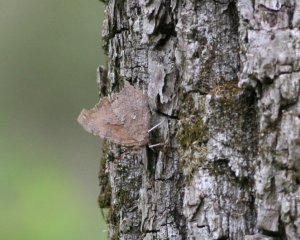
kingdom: Animalia
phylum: Arthropoda
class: Insecta
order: Lepidoptera
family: Nymphalidae
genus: Polygonia
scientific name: Polygonia interrogationis
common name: Question Mark
